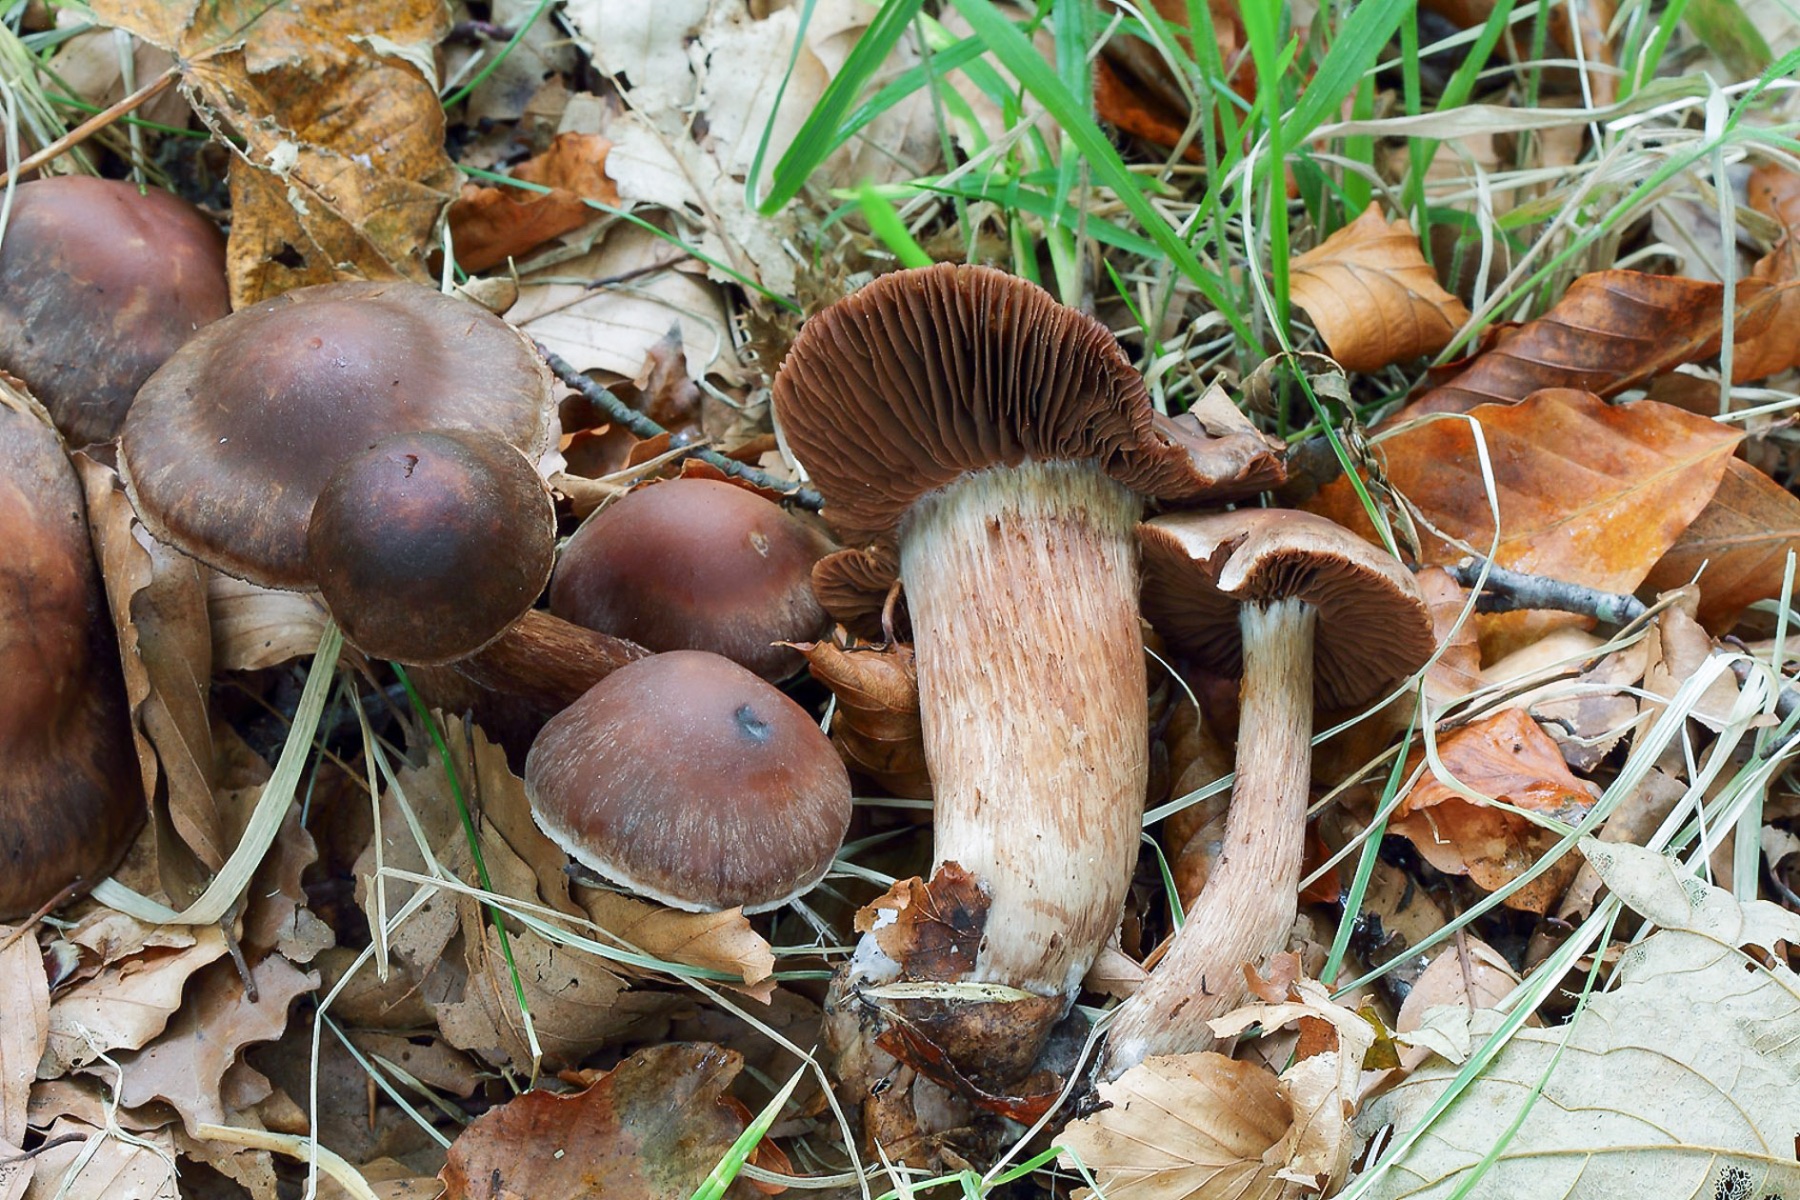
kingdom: Fungi
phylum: Basidiomycota
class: Agaricomycetes
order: Agaricales
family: Cortinariaceae
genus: Cortinarius
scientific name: Cortinarius subsulcatipes
